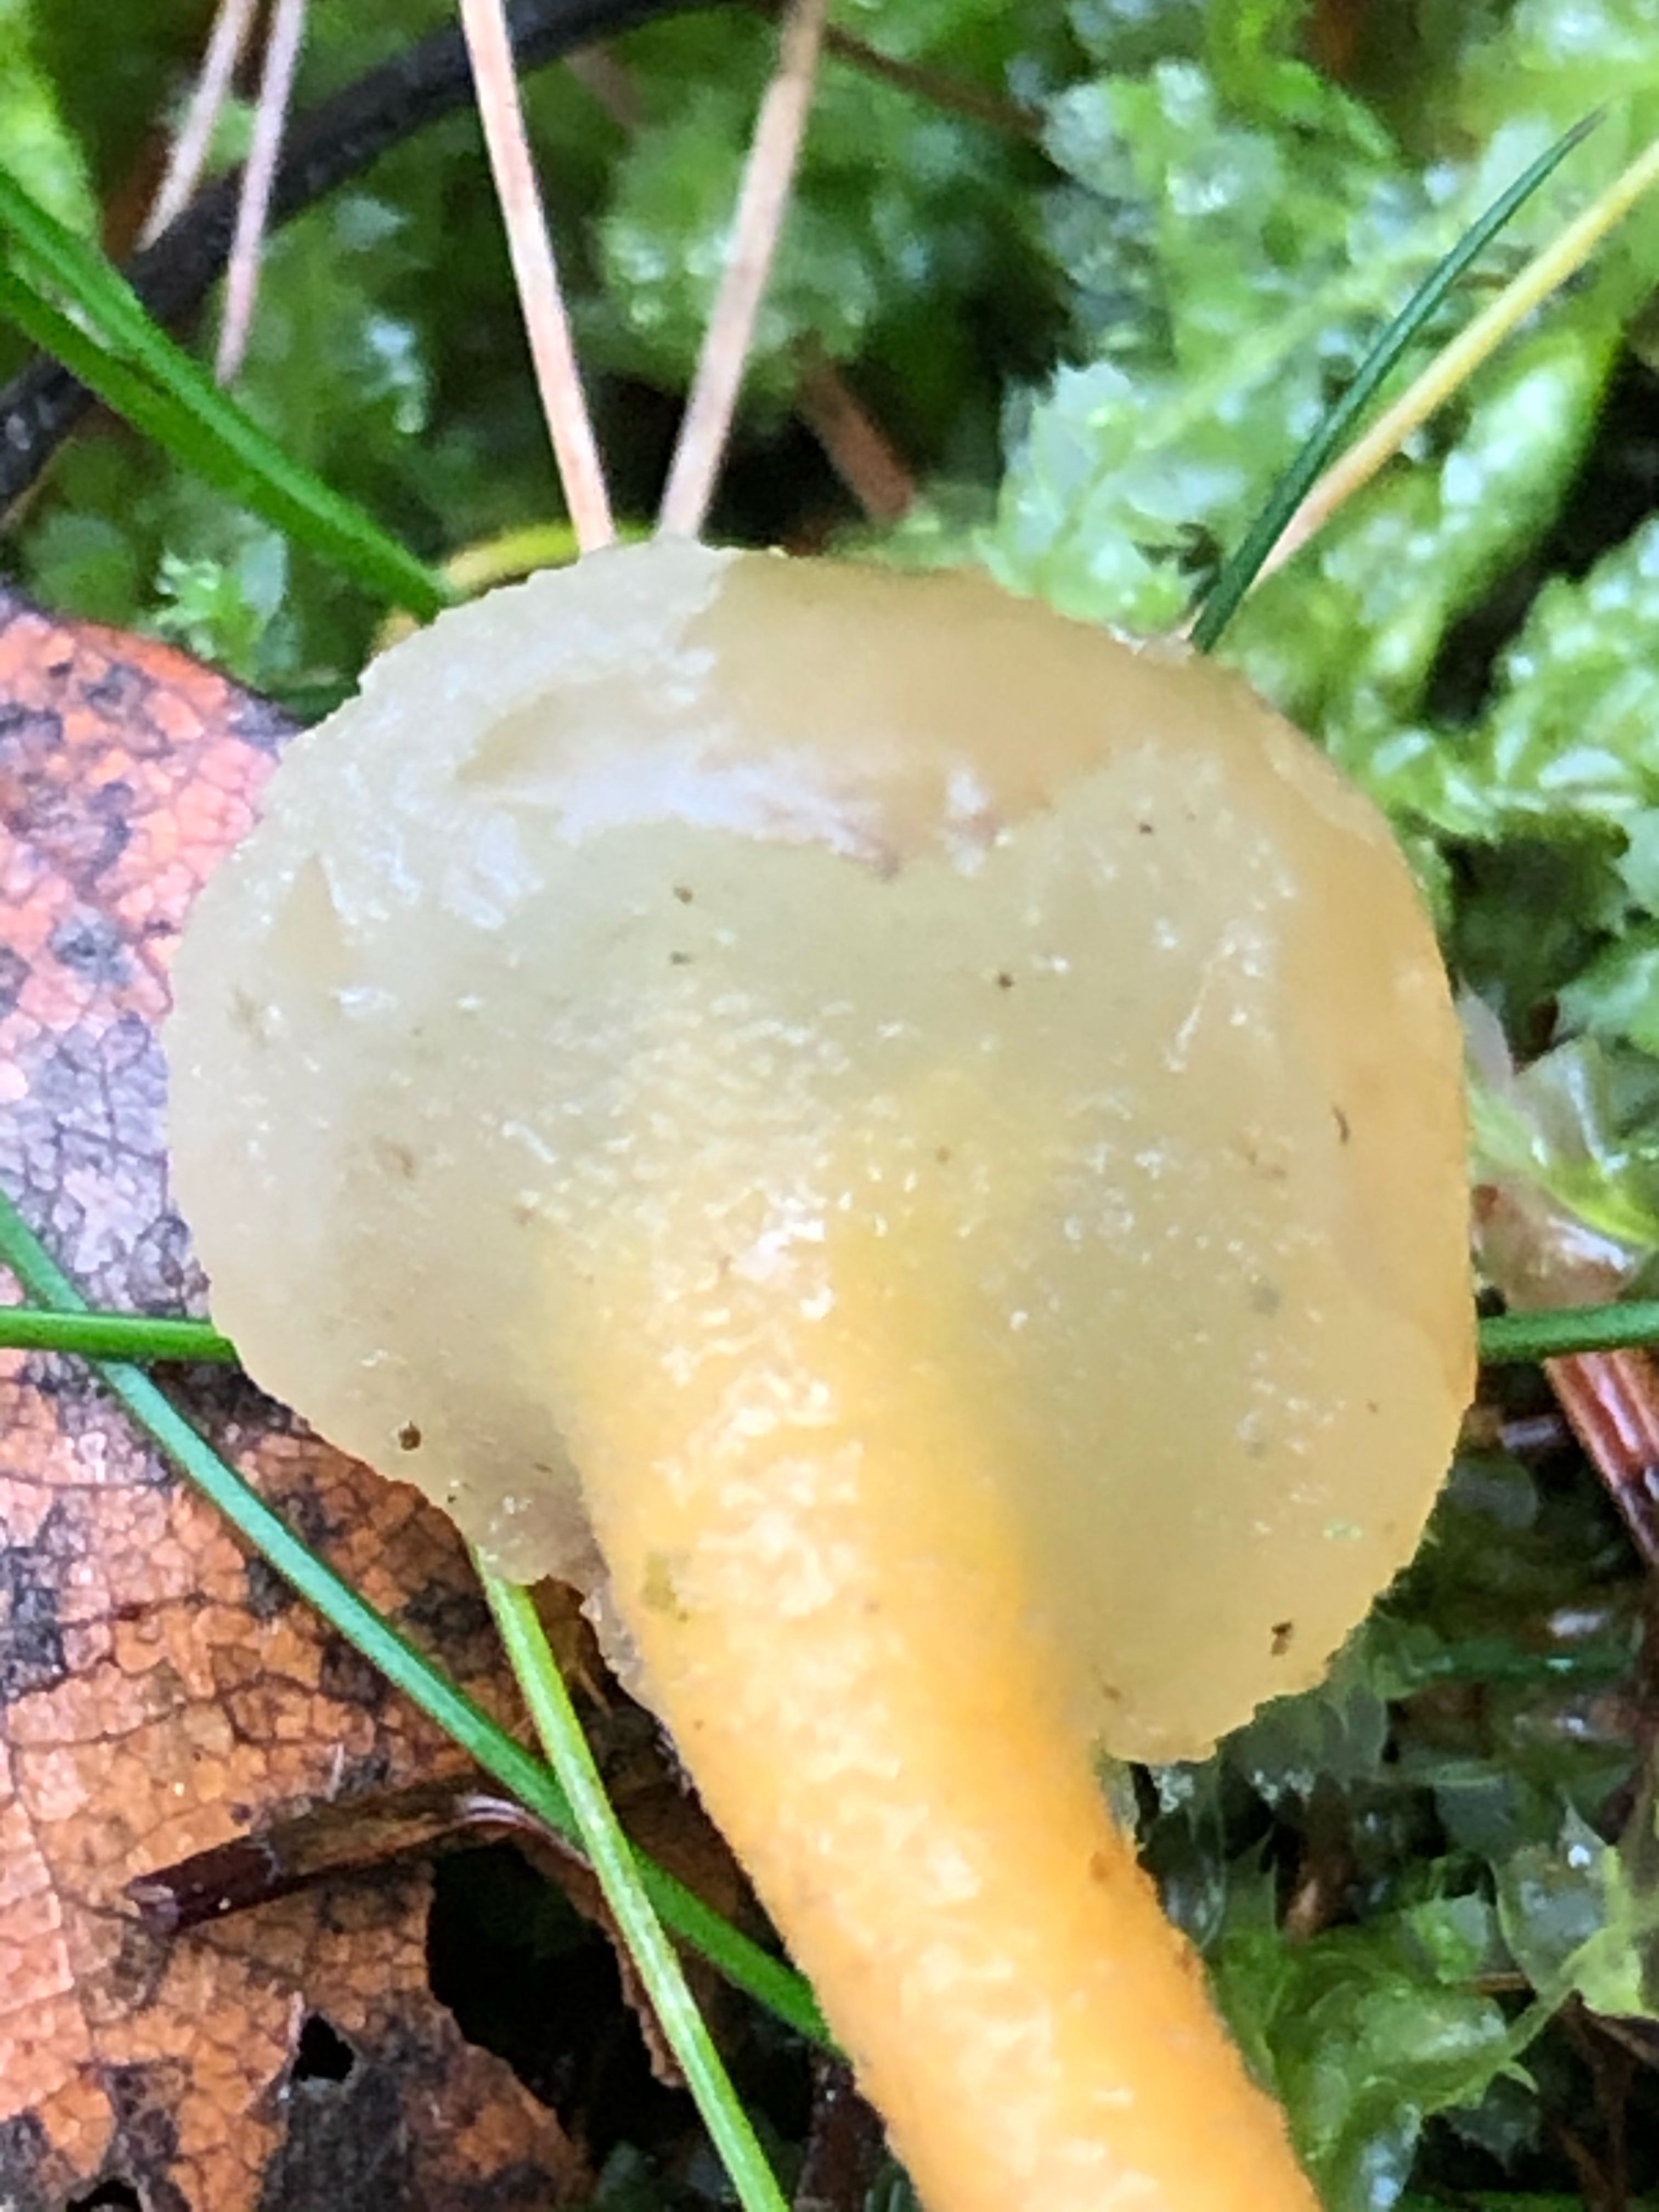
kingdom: Fungi
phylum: Ascomycota
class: Leotiomycetes
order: Leotiales
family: Leotiaceae
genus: Leotia
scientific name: Leotia lubrica
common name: ravsvamp
